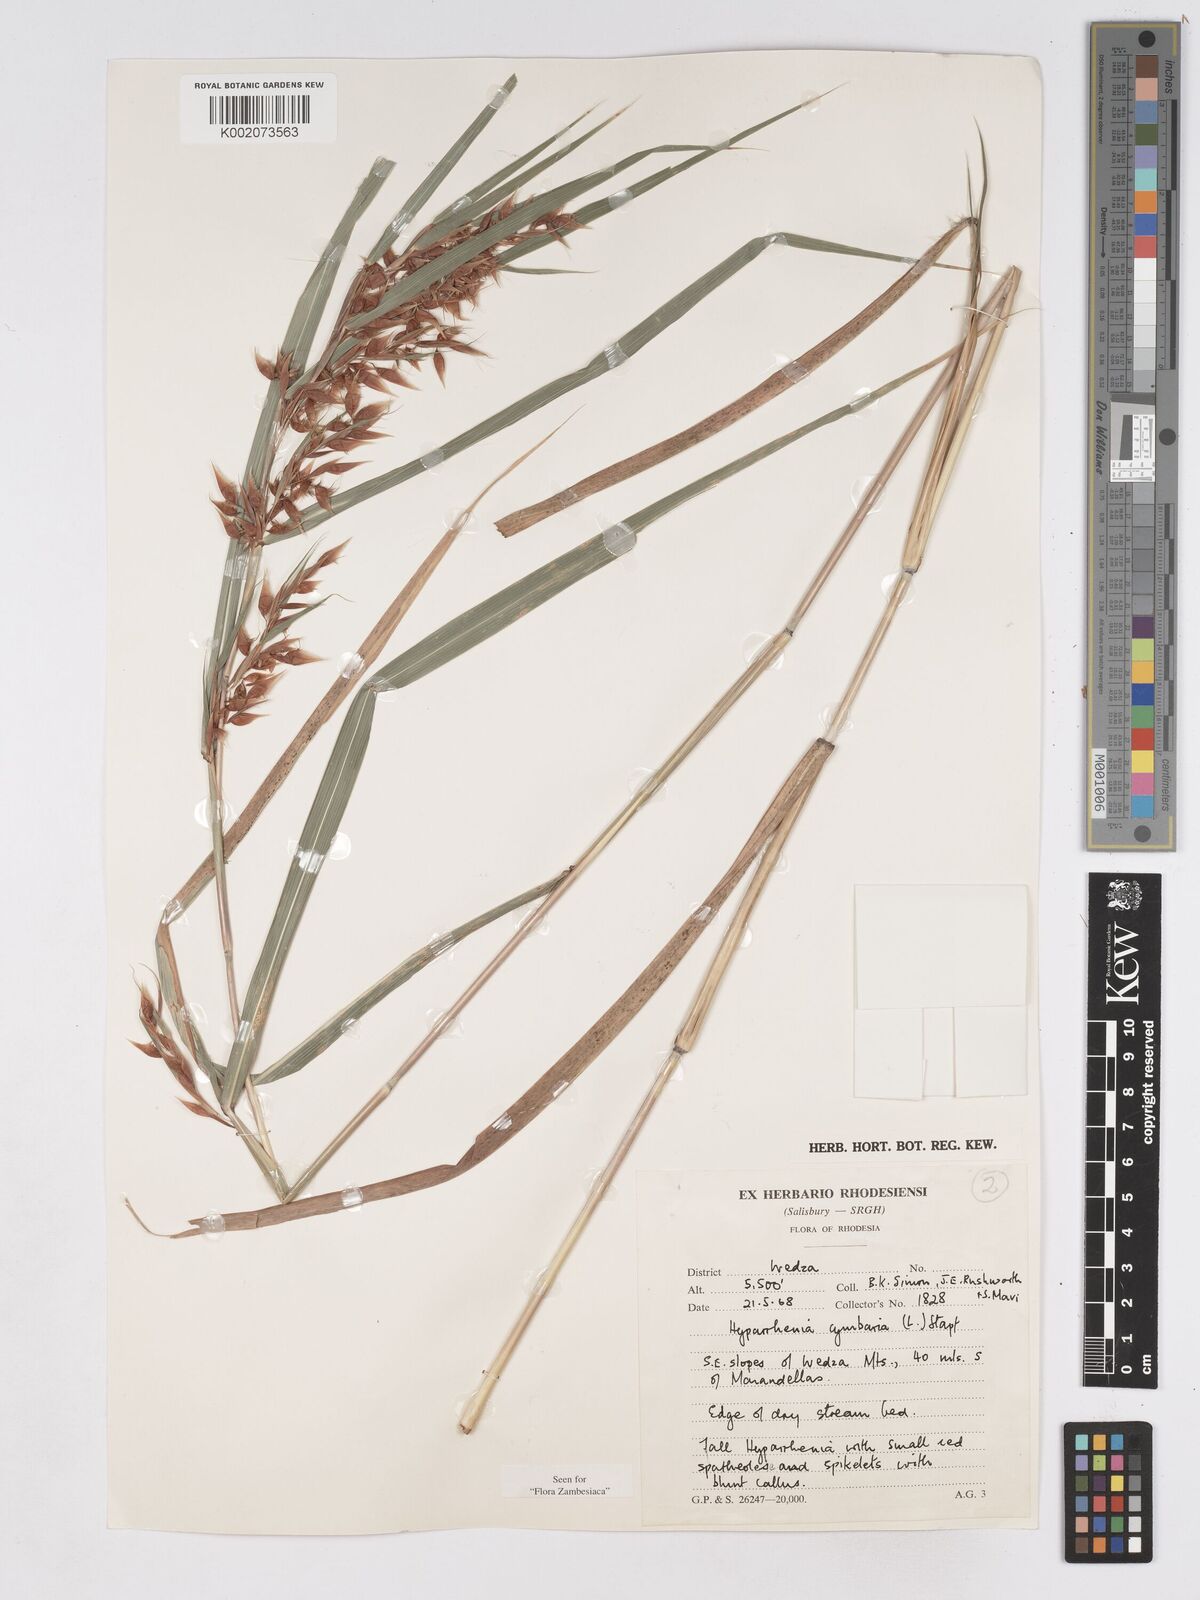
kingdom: Plantae
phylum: Tracheophyta
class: Liliopsida
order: Poales
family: Poaceae
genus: Hyparrhenia
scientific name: Hyparrhenia cymbaria
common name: Boat thatching grass
